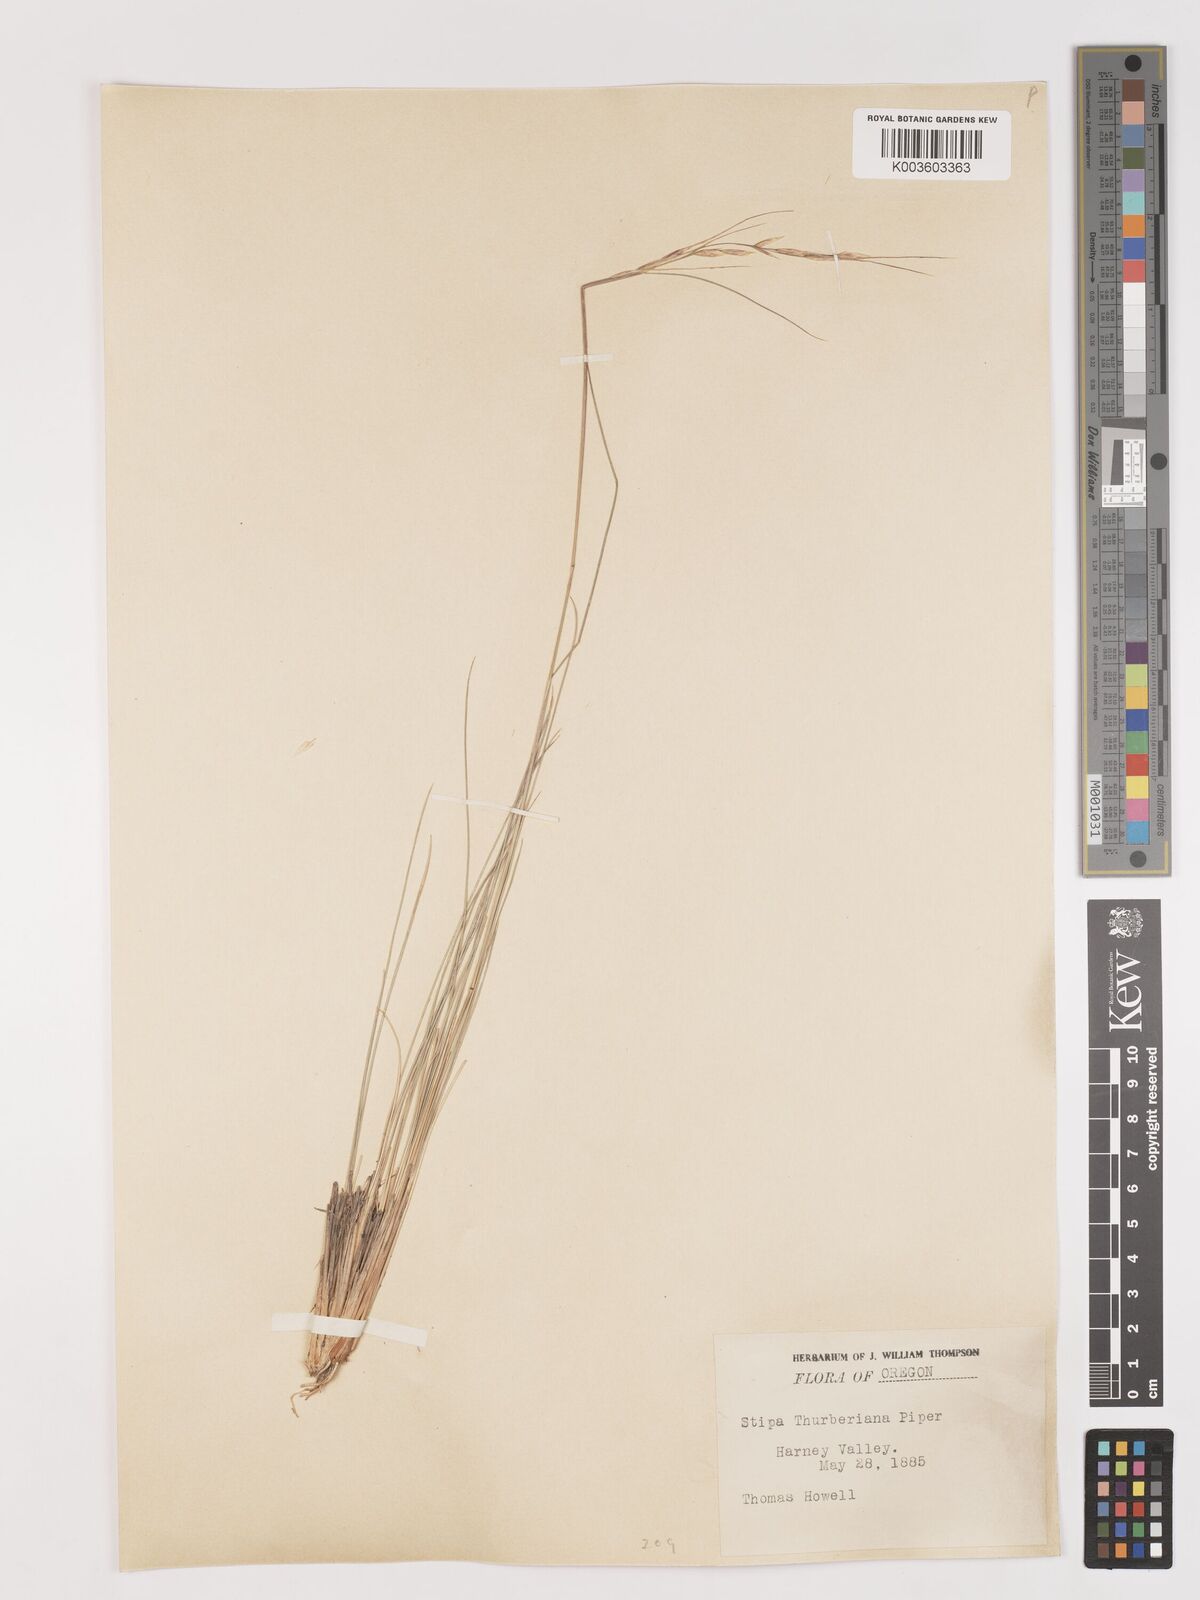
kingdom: Plantae
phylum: Tracheophyta
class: Liliopsida
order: Poales
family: Poaceae
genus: Eriocoma
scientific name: Eriocoma thurberiana
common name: Thurber's needlegrass
